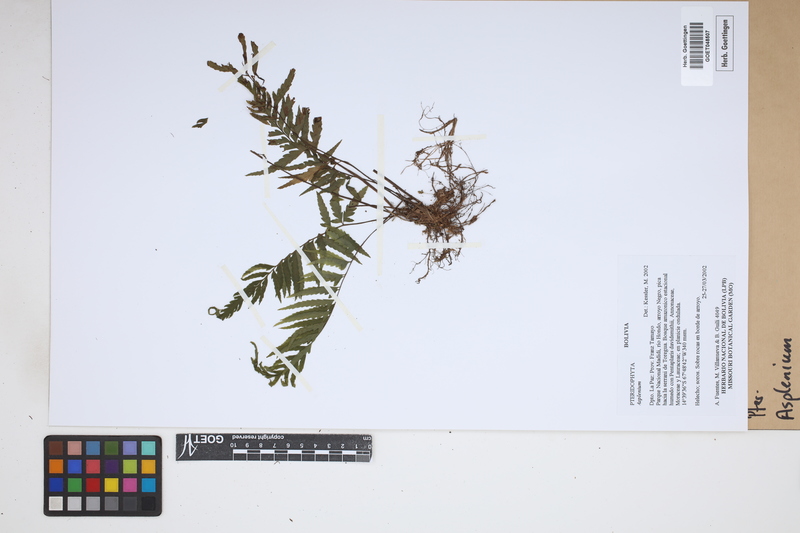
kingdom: Plantae
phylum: Tracheophyta
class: Polypodiopsida
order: Polypodiales
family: Aspleniaceae
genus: Asplenium
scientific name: Asplenium
